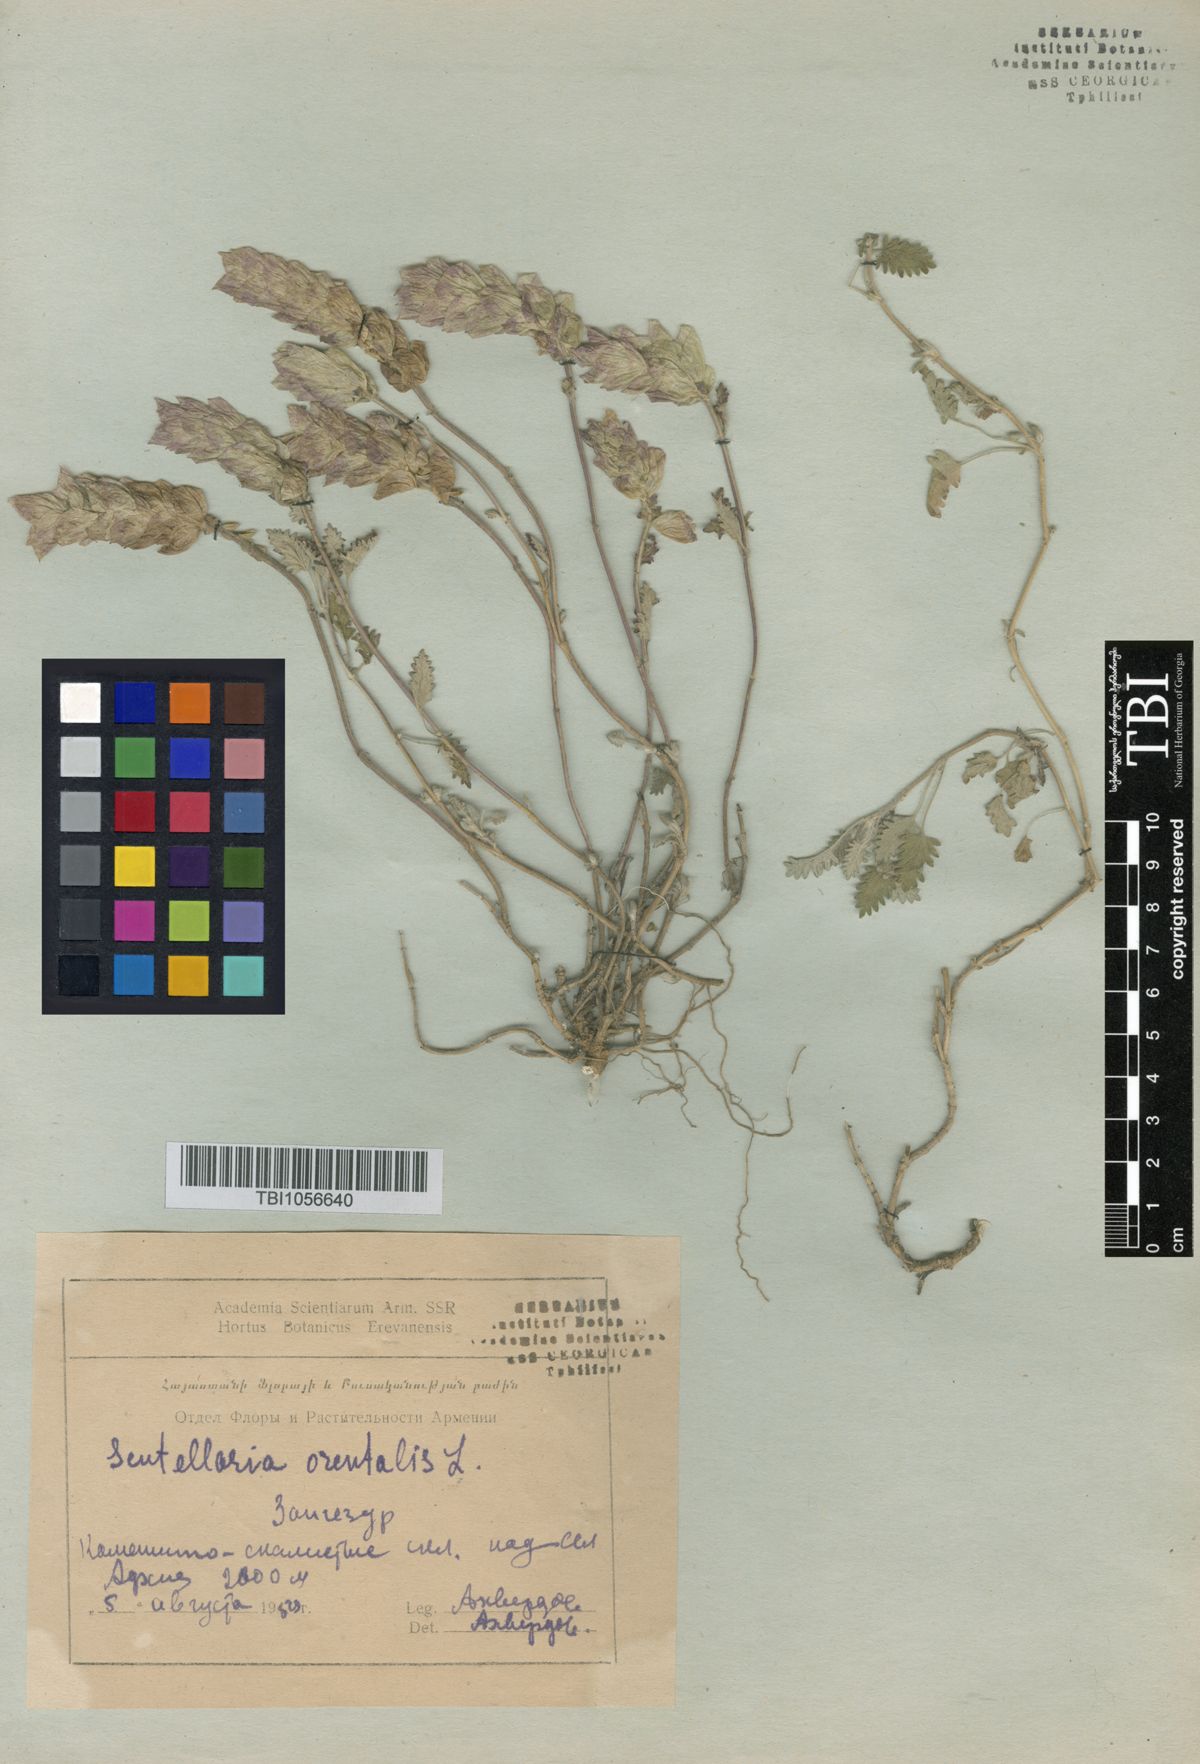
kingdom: Plantae
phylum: Tracheophyta
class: Magnoliopsida
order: Lamiales
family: Lamiaceae
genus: Scutellaria
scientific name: Scutellaria orientalis
